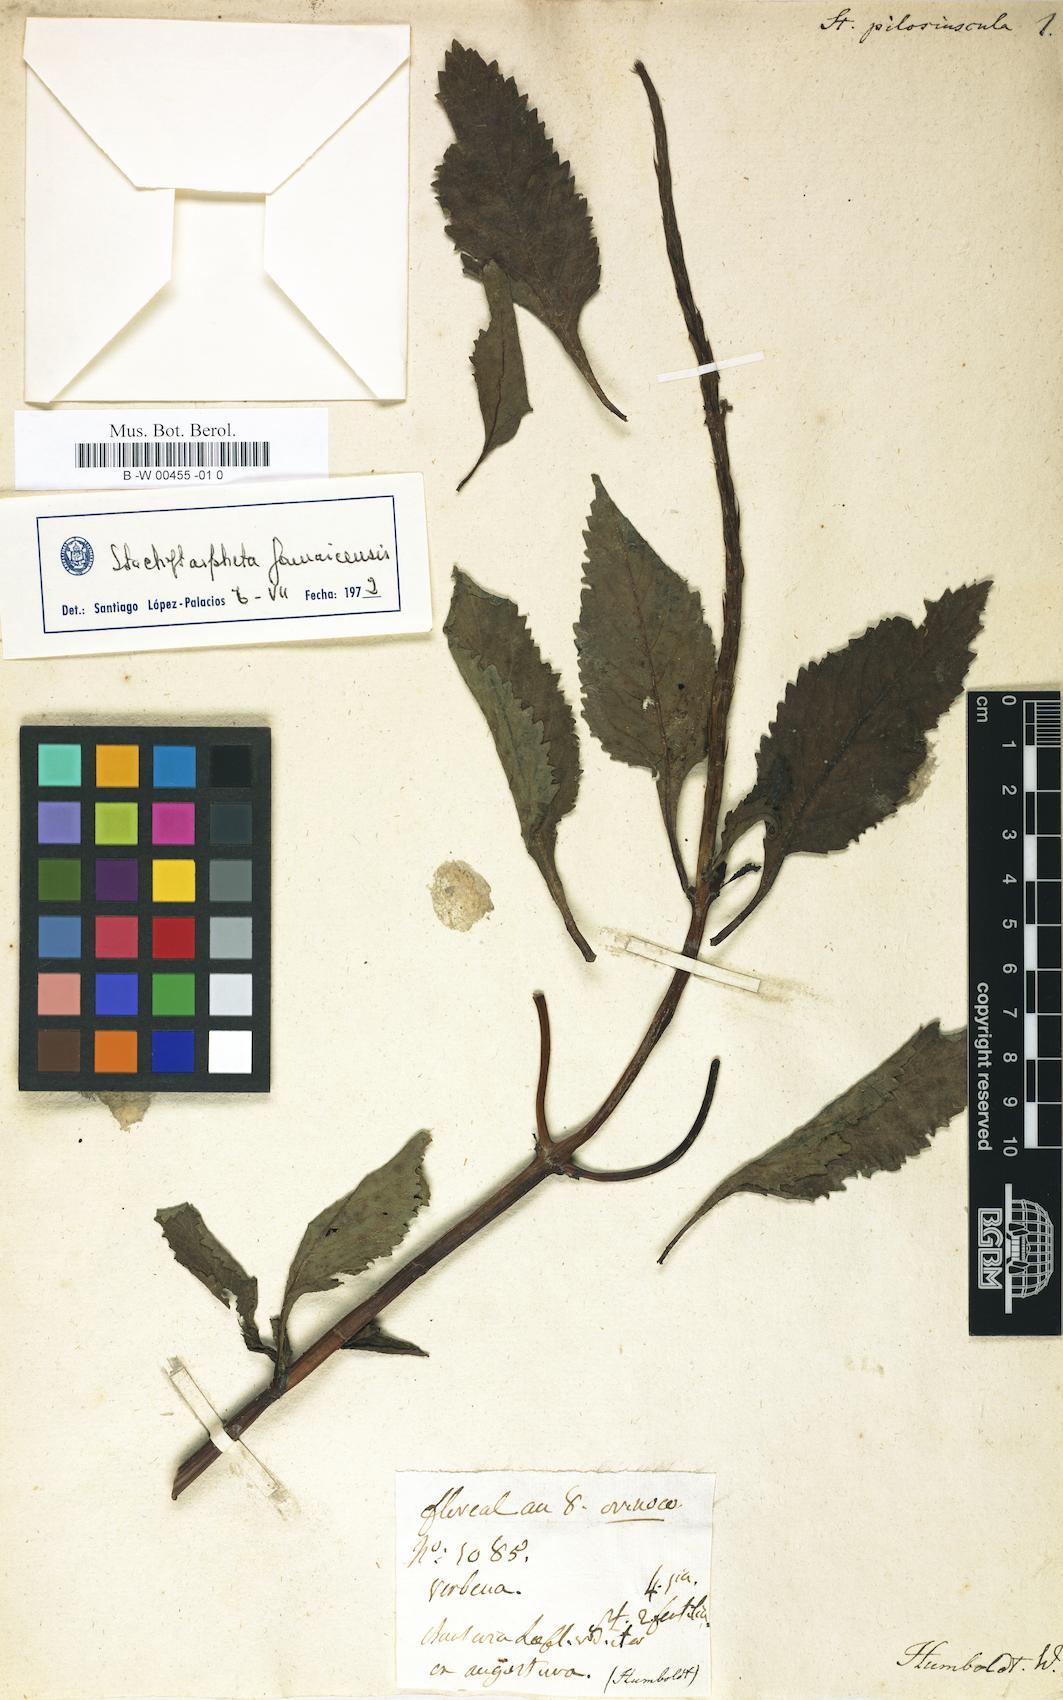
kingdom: Plantae
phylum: Tracheophyta
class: Magnoliopsida
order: Lamiales
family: Verbenaceae
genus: Stachytarpheta
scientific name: Stachytarpheta jamaicensis
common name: Light-blue snakeweed
